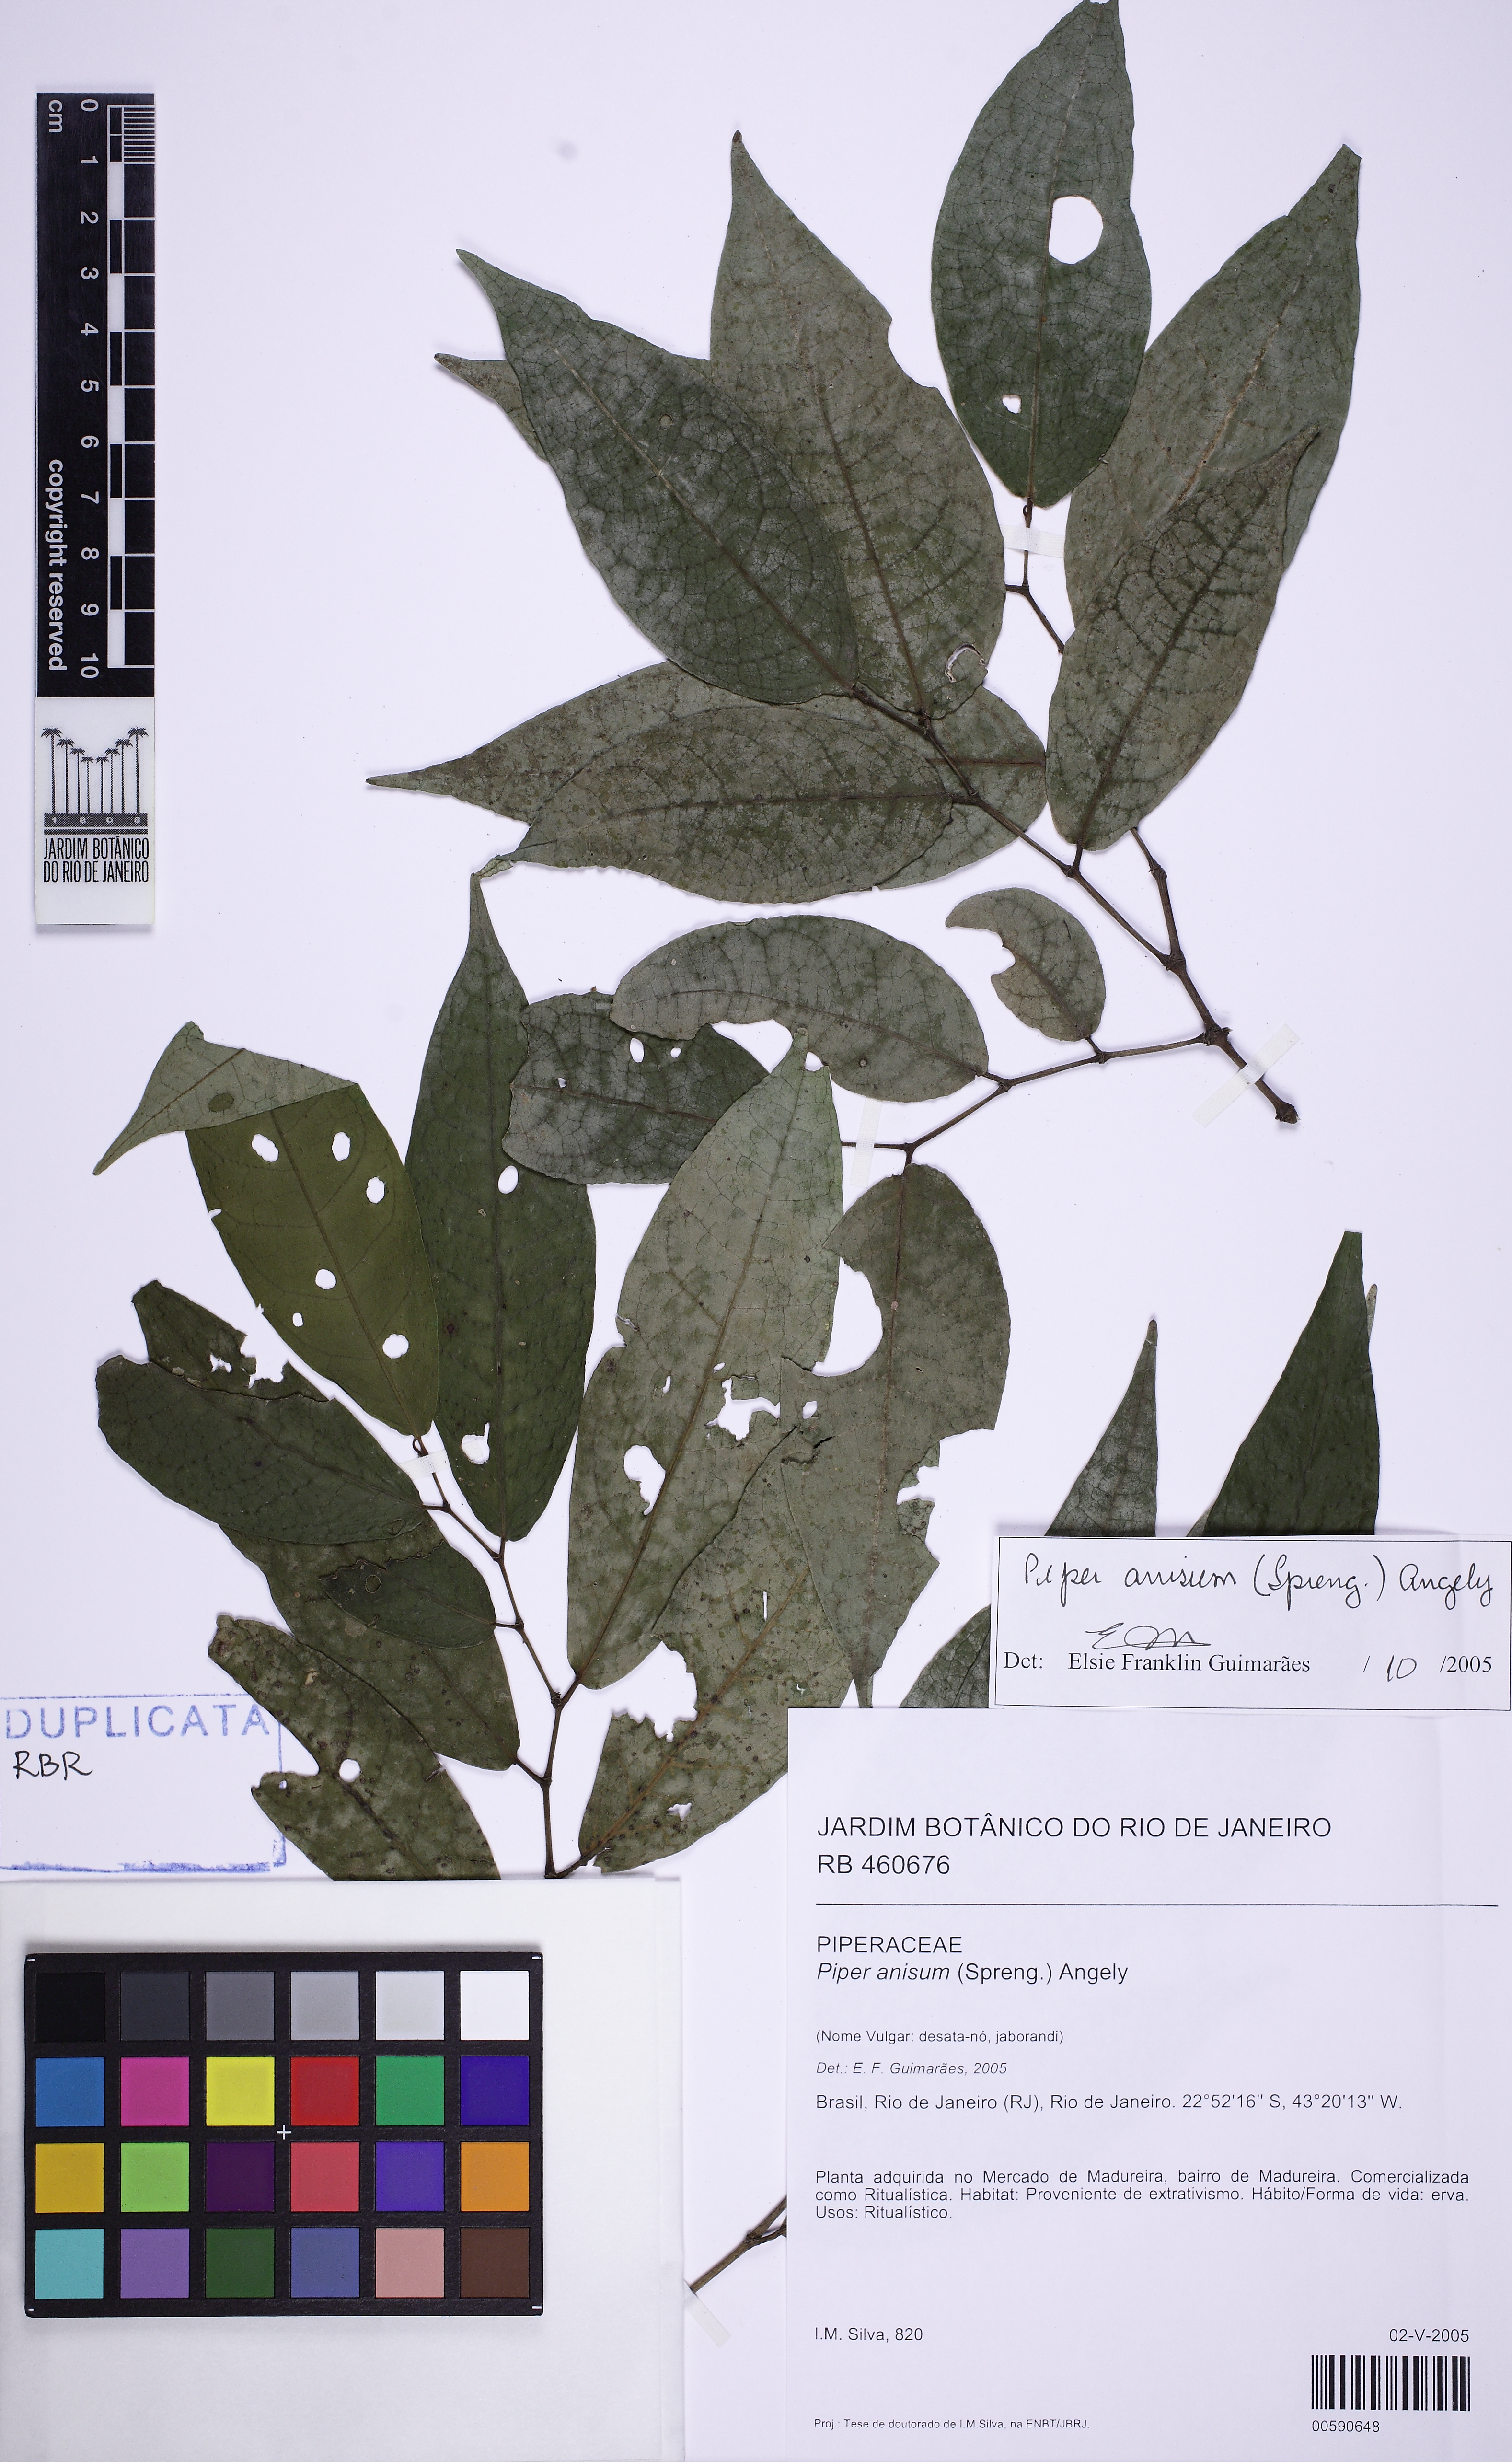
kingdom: Plantae
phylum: Tracheophyta
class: Magnoliopsida
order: Piperales
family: Piperaceae
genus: Piper
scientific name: Piper anisum
